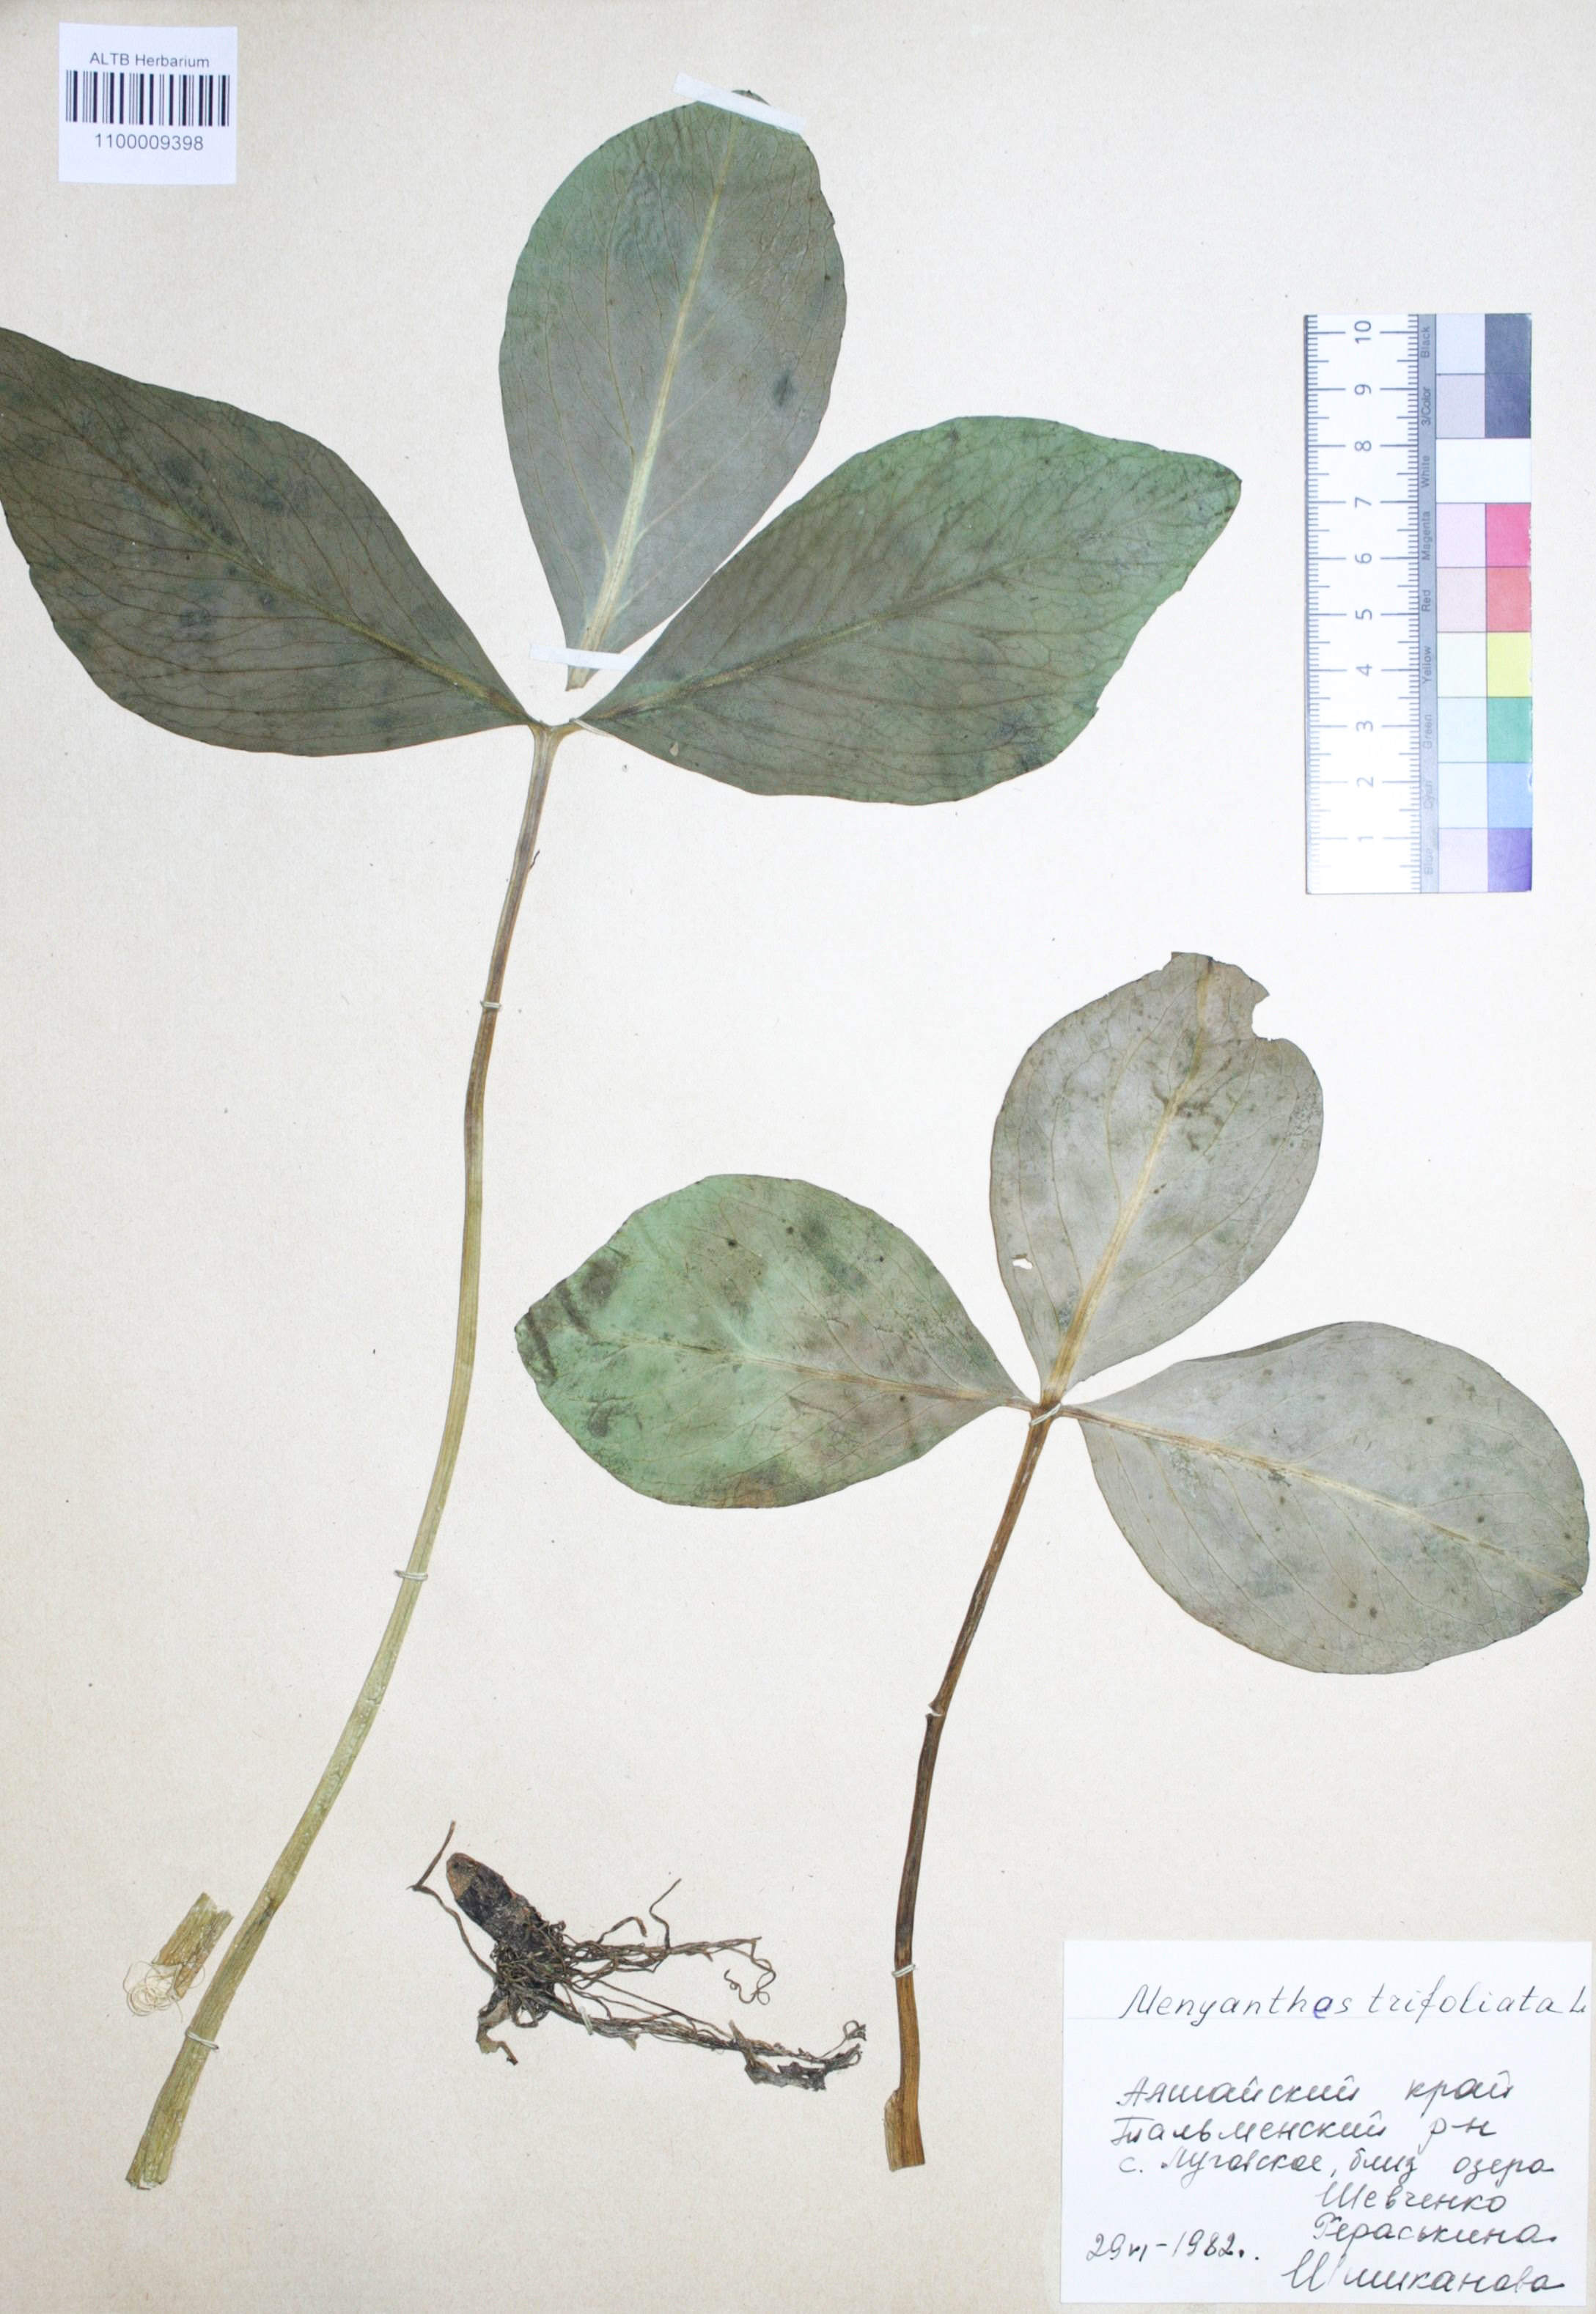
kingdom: Plantae
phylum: Tracheophyta
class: Magnoliopsida
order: Asterales
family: Menyanthaceae
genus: Menyanthes
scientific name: Menyanthes trifoliata
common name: Bogbean
